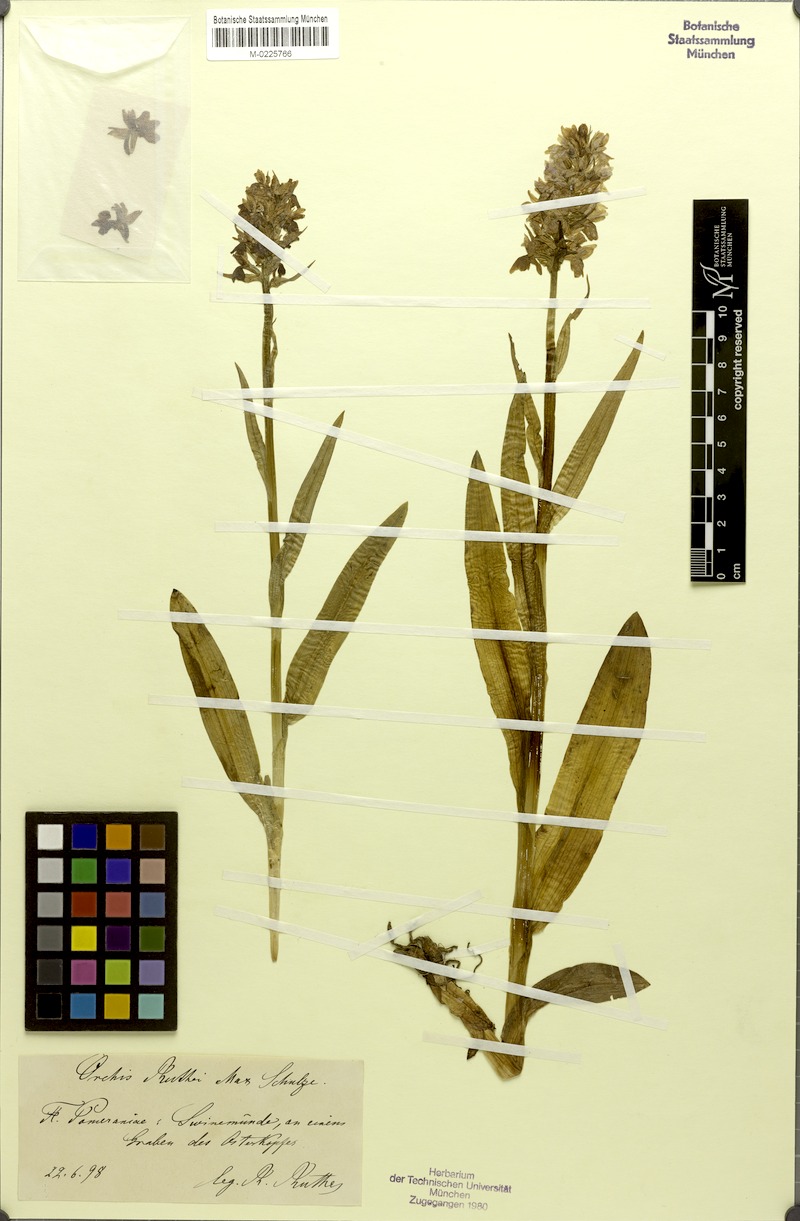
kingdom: Plantae
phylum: Tracheophyta
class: Liliopsida
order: Asparagales
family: Orchidaceae
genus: Dactylorhiza
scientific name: Dactylorhiza majalis
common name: Marsh orchid
